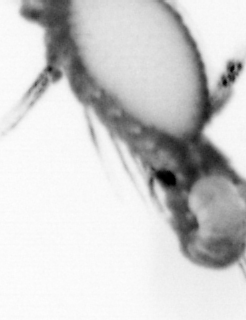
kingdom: Animalia
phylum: Annelida
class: Polychaeta
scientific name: Polychaeta
